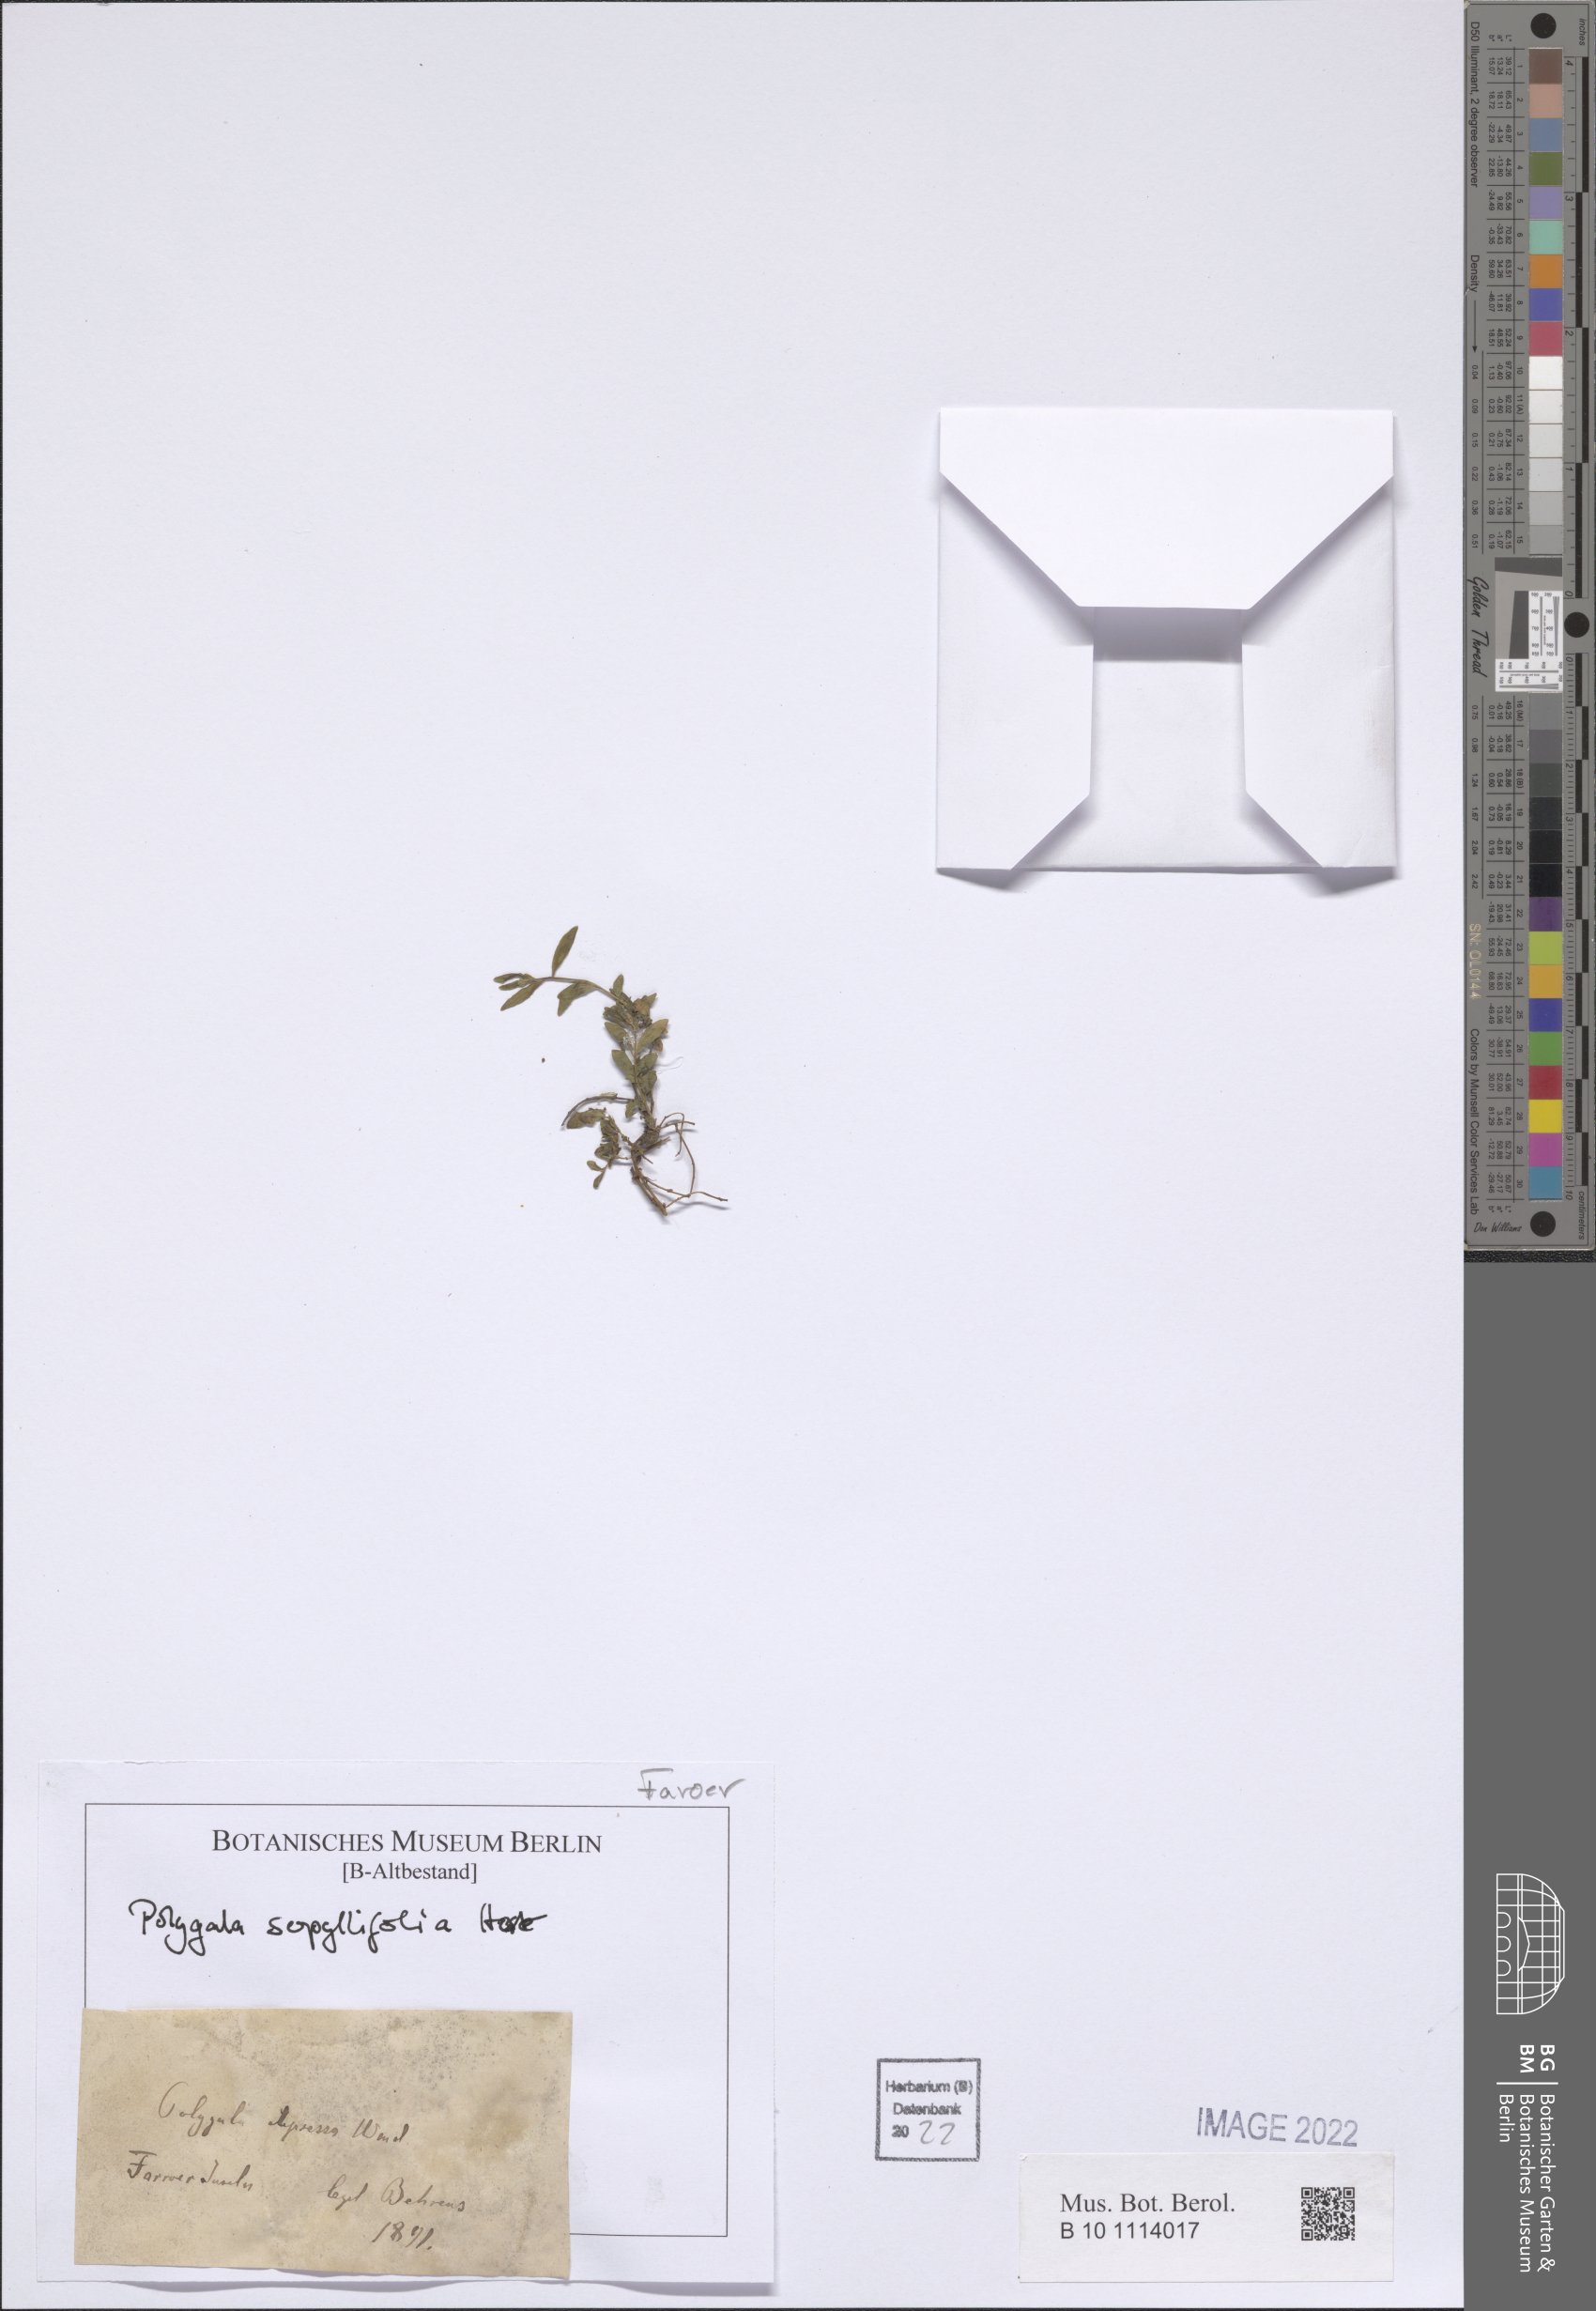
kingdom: Plantae
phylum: Tracheophyta
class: Magnoliopsida
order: Fabales
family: Polygalaceae
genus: Polygala
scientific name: Polygala serpyllifolia
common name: Heath milkwort
